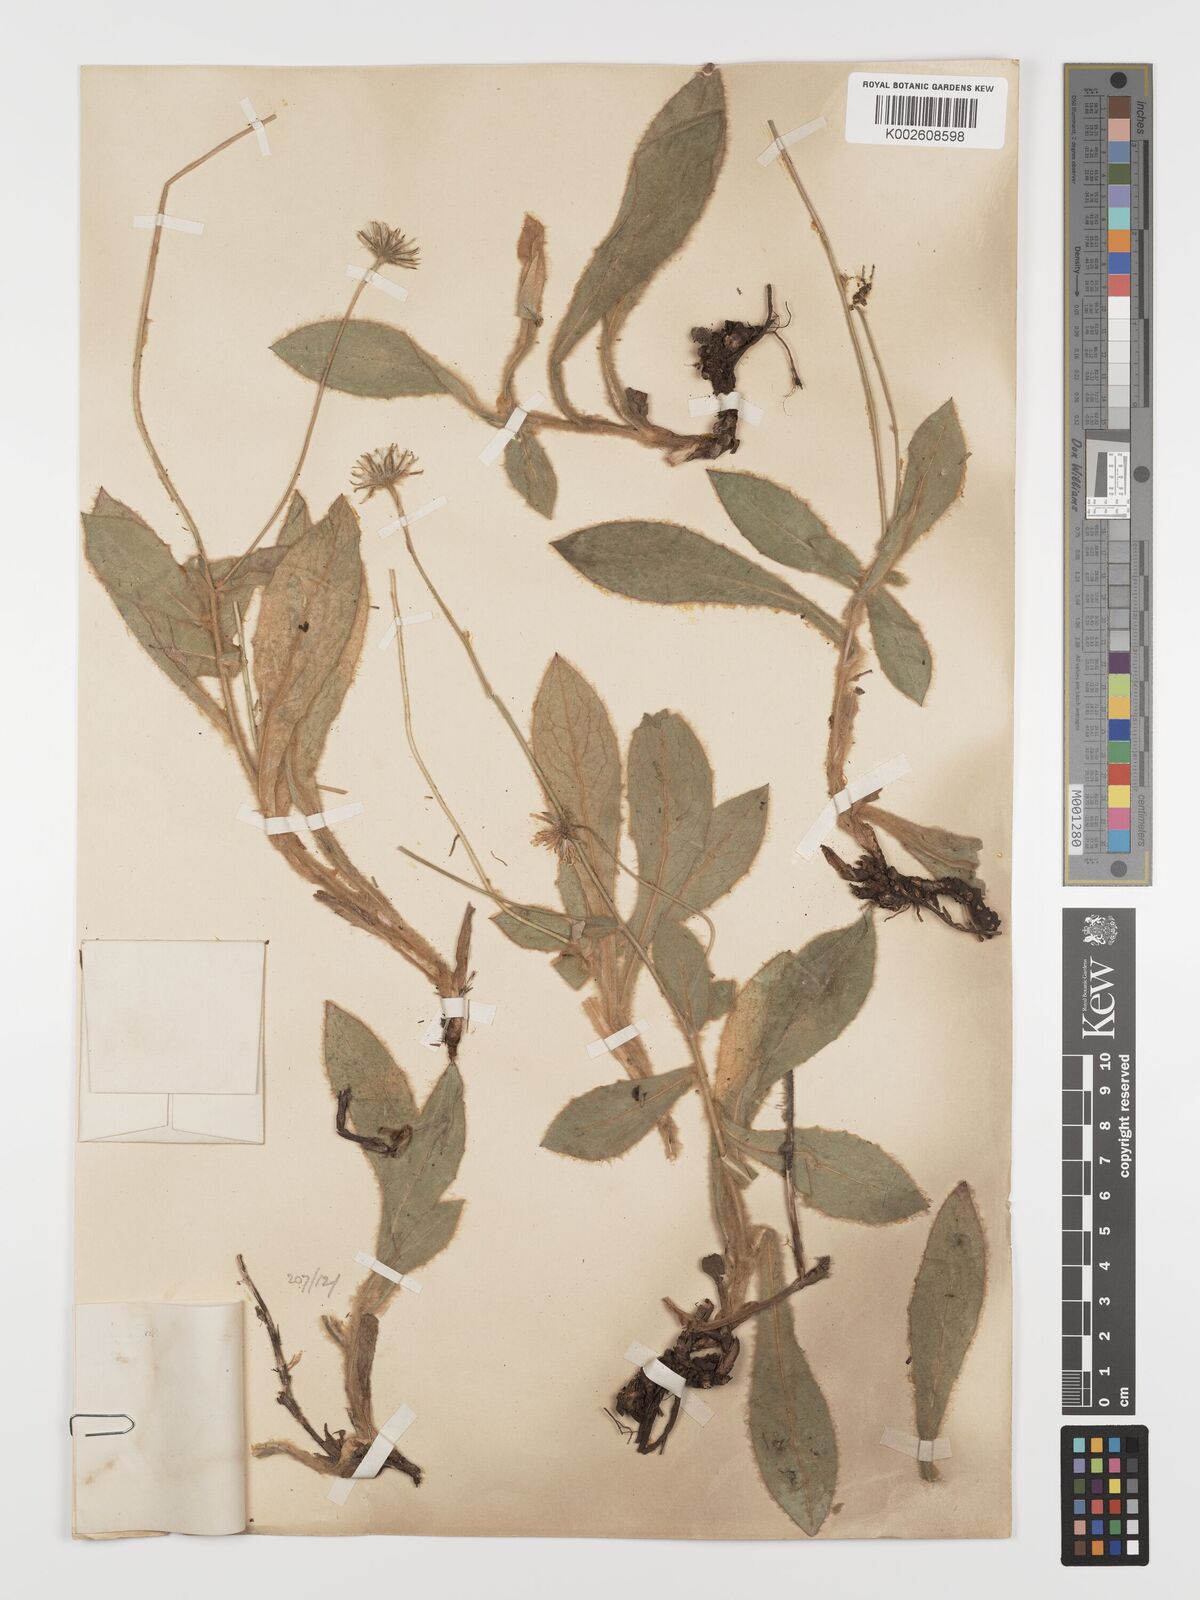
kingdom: Plantae
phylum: Tracheophyta
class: Magnoliopsida
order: Asterales
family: Asteraceae
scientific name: Asteraceae
